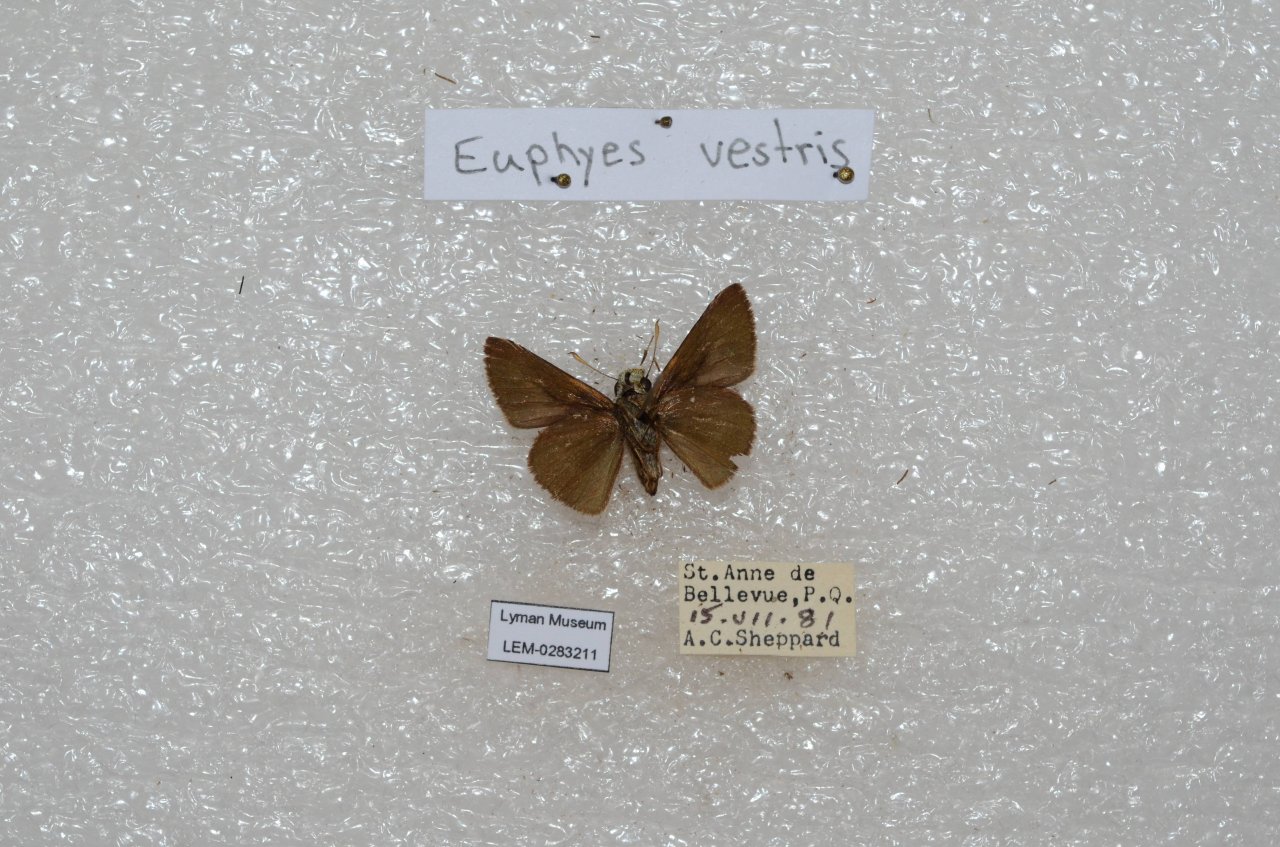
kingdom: Animalia
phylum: Arthropoda
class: Insecta
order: Lepidoptera
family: Hesperiidae
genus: Euphyes
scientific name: Euphyes vestris
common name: Dun Skipper
